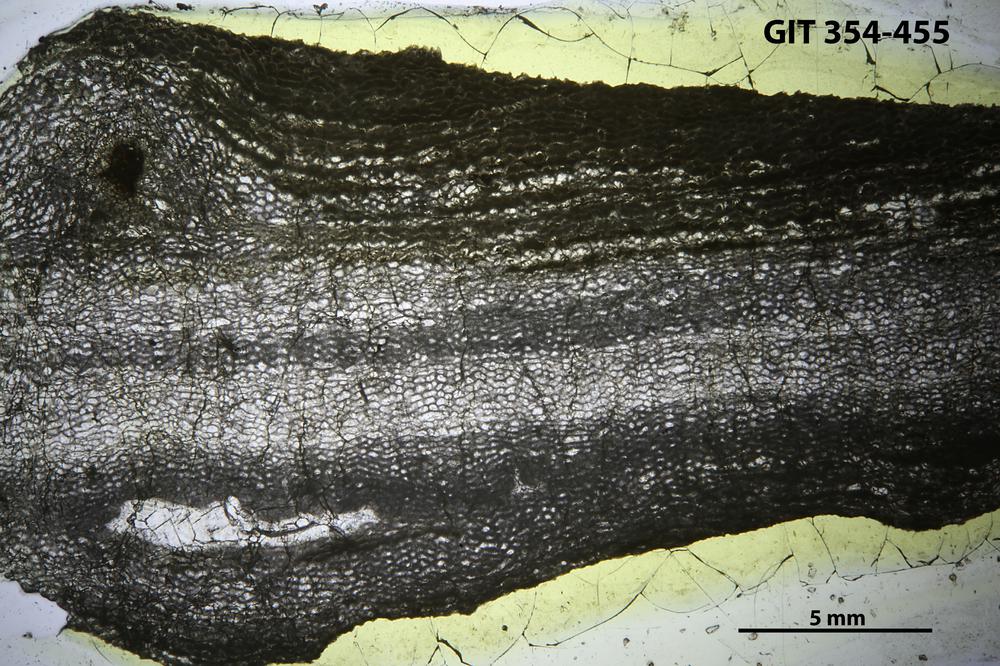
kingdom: Animalia
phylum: Porifera
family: Ecclimadictyidae
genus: Ecclimadictyon
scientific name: Ecclimadictyon Clathrodictyon fastigiatum
